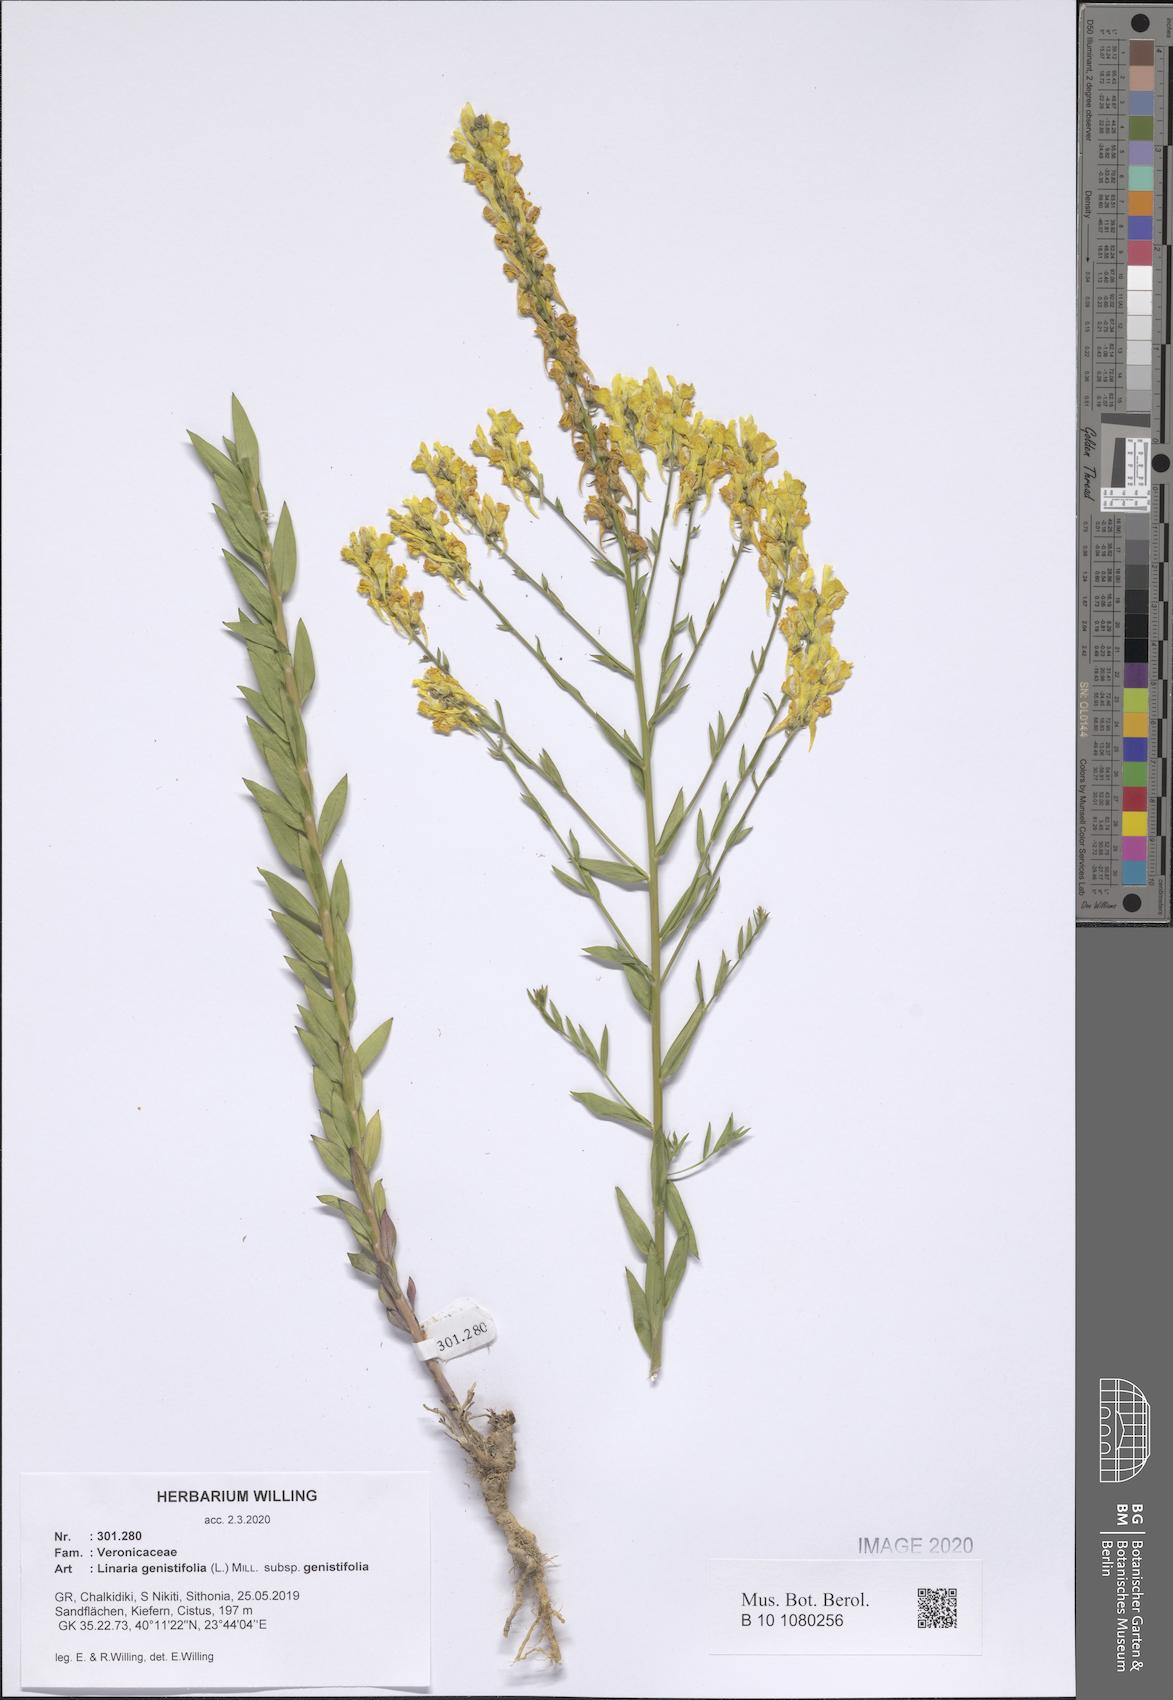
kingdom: Plantae
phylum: Tracheophyta
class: Magnoliopsida
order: Lamiales
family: Plantaginaceae
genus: Linaria
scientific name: Linaria genistifolia
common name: Broomleaf toadflax
